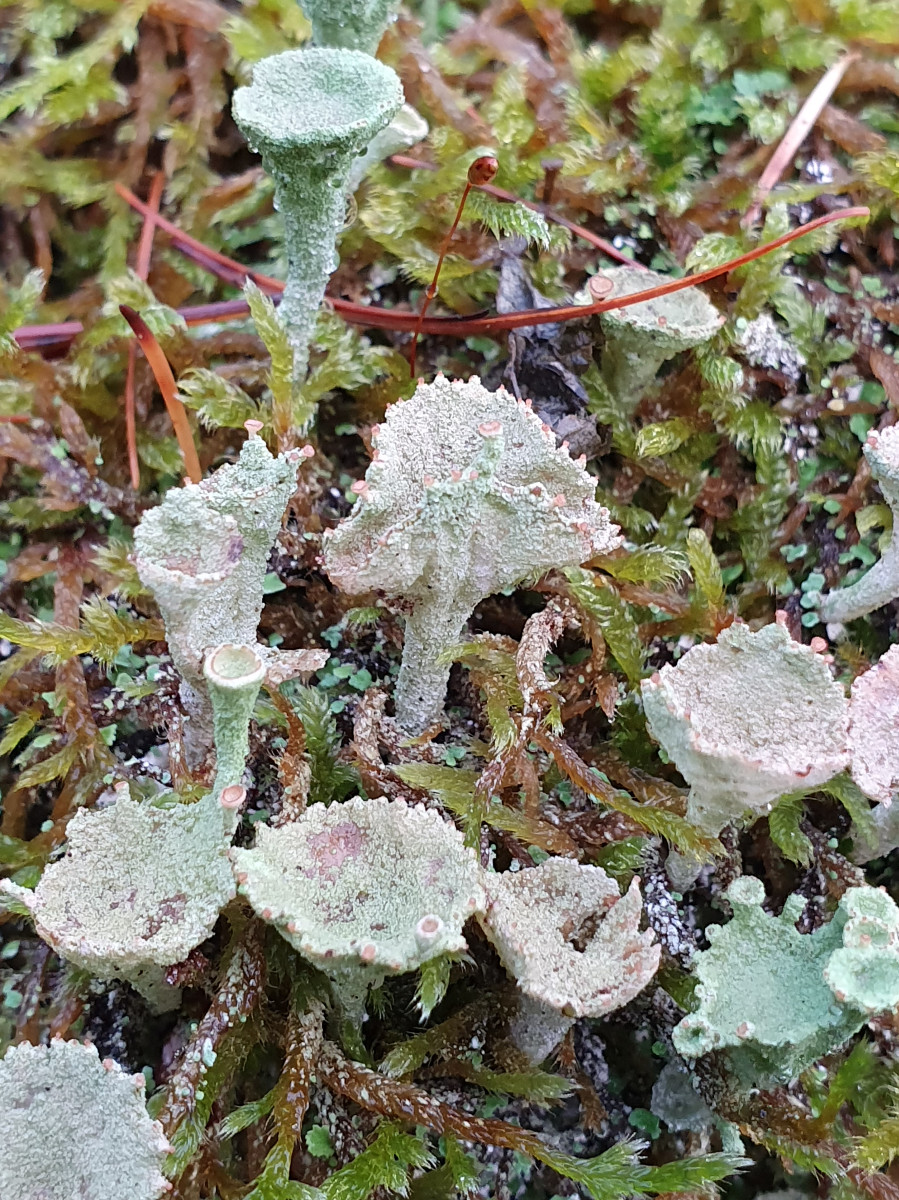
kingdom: Fungi
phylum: Ascomycota
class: Lecanoromycetes
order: Lecanorales
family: Cladoniaceae
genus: Cladonia
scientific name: Cladonia
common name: brungrøn bægerlav
